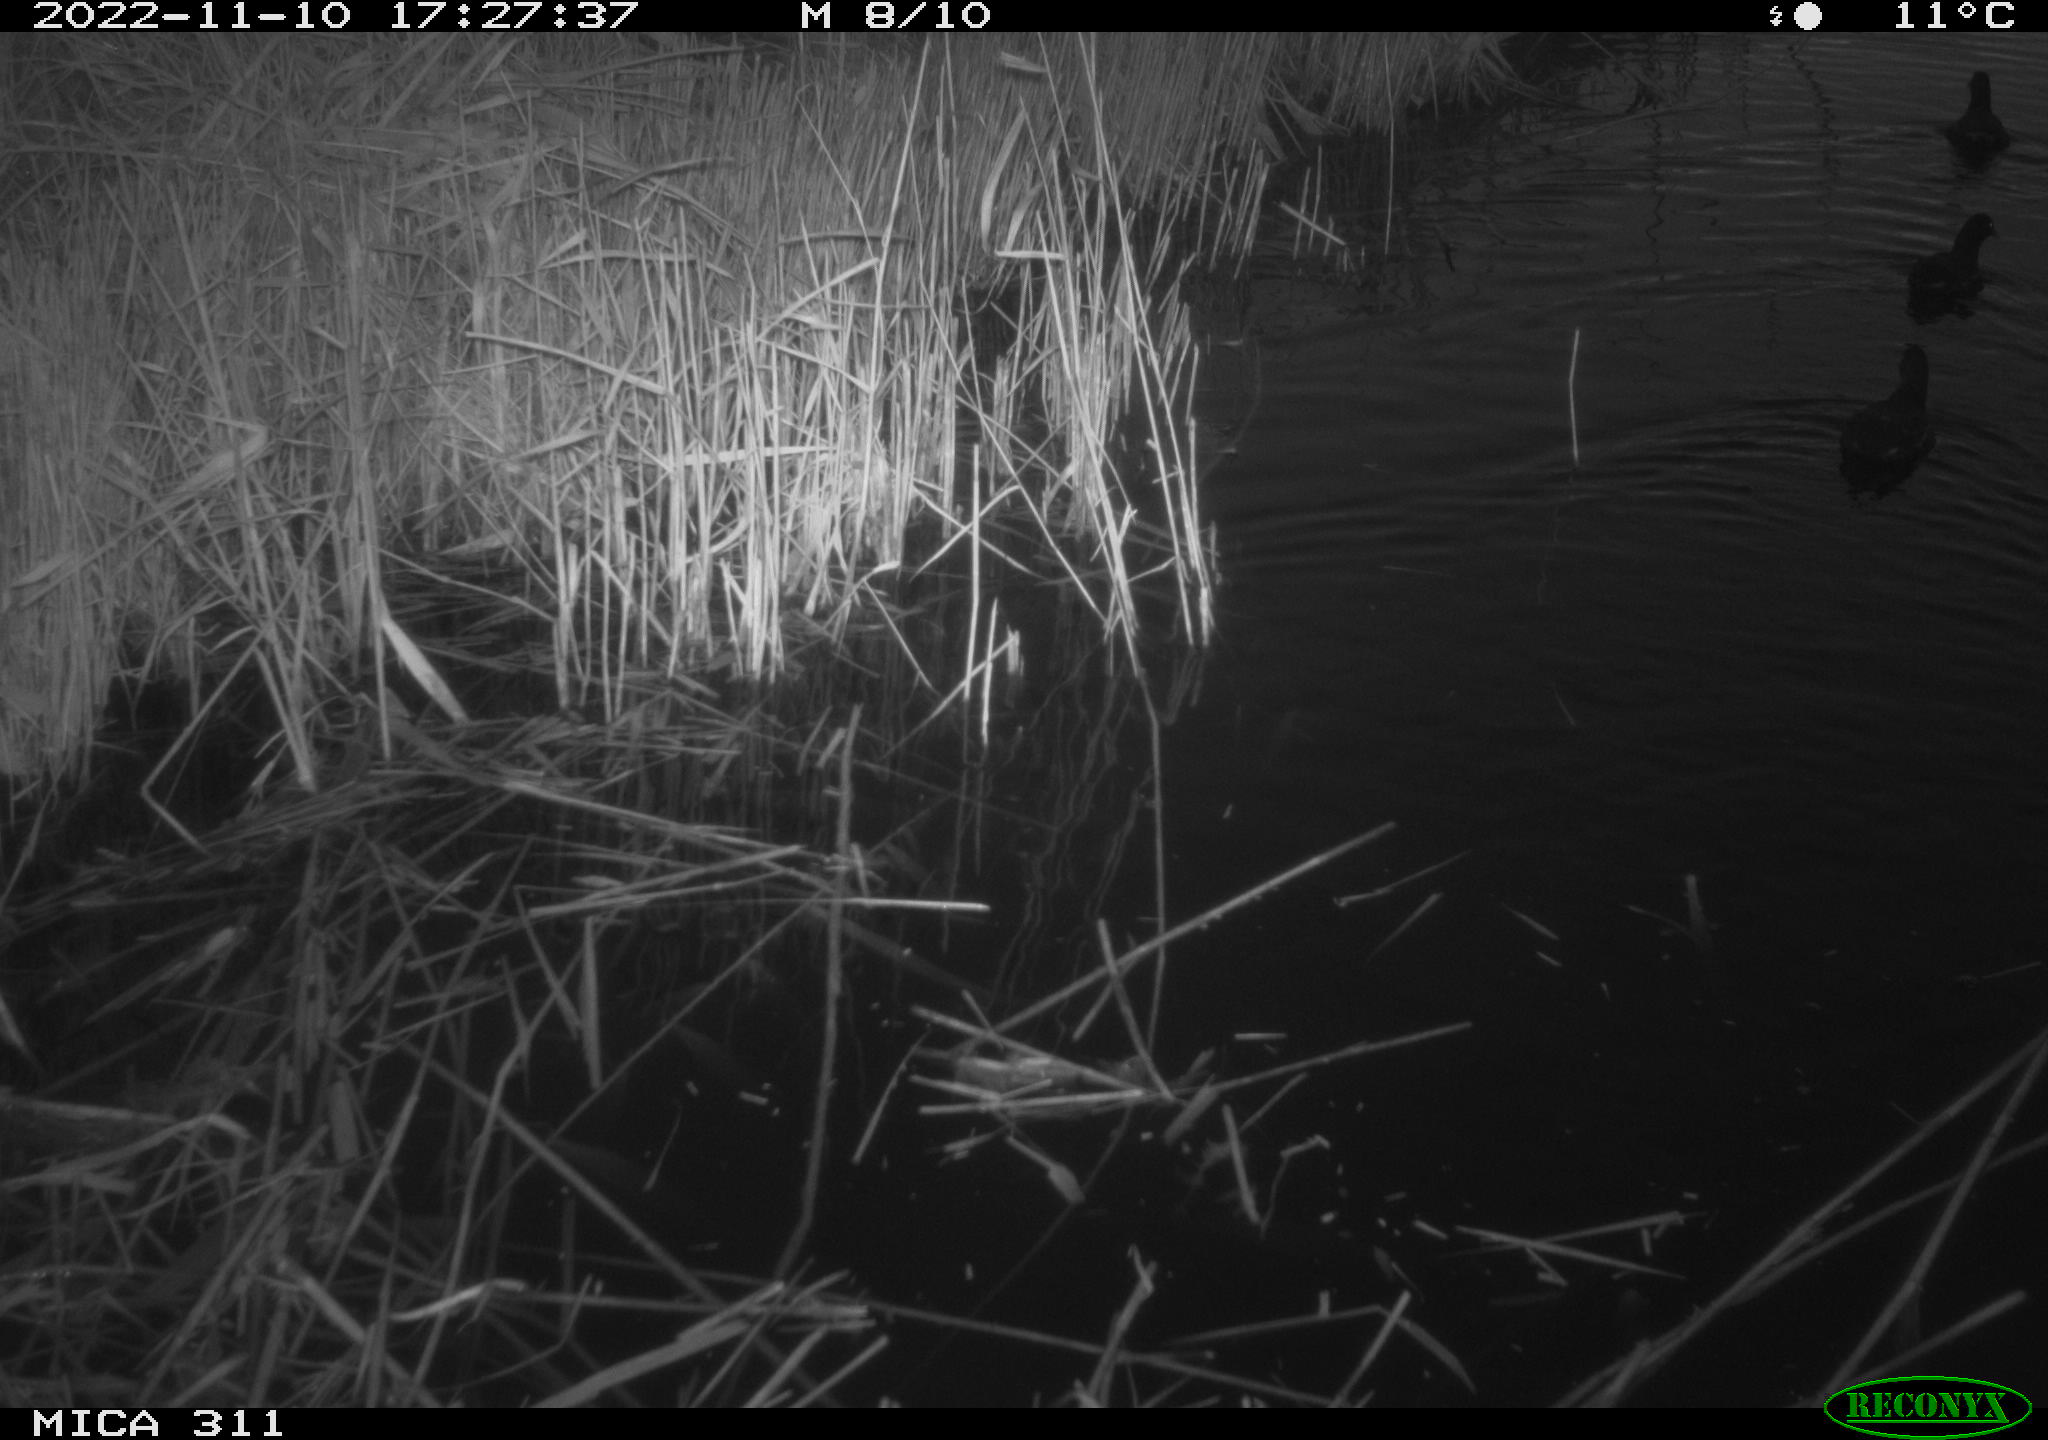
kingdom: Animalia
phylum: Chordata
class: Aves
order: Anseriformes
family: Anatidae
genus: Anas
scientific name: Anas
